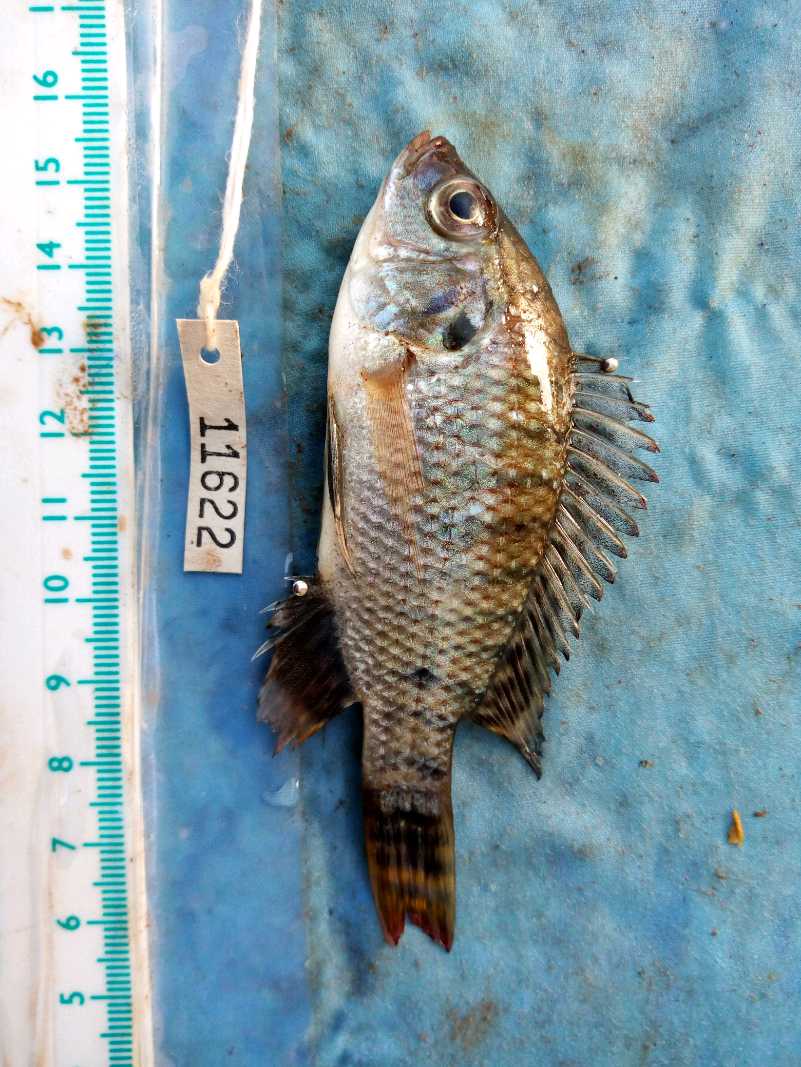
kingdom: Animalia
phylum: Chordata
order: Perciformes
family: Cichlidae
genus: Oreochromis
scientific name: Oreochromis spilurus
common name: Sabaki tilapia
